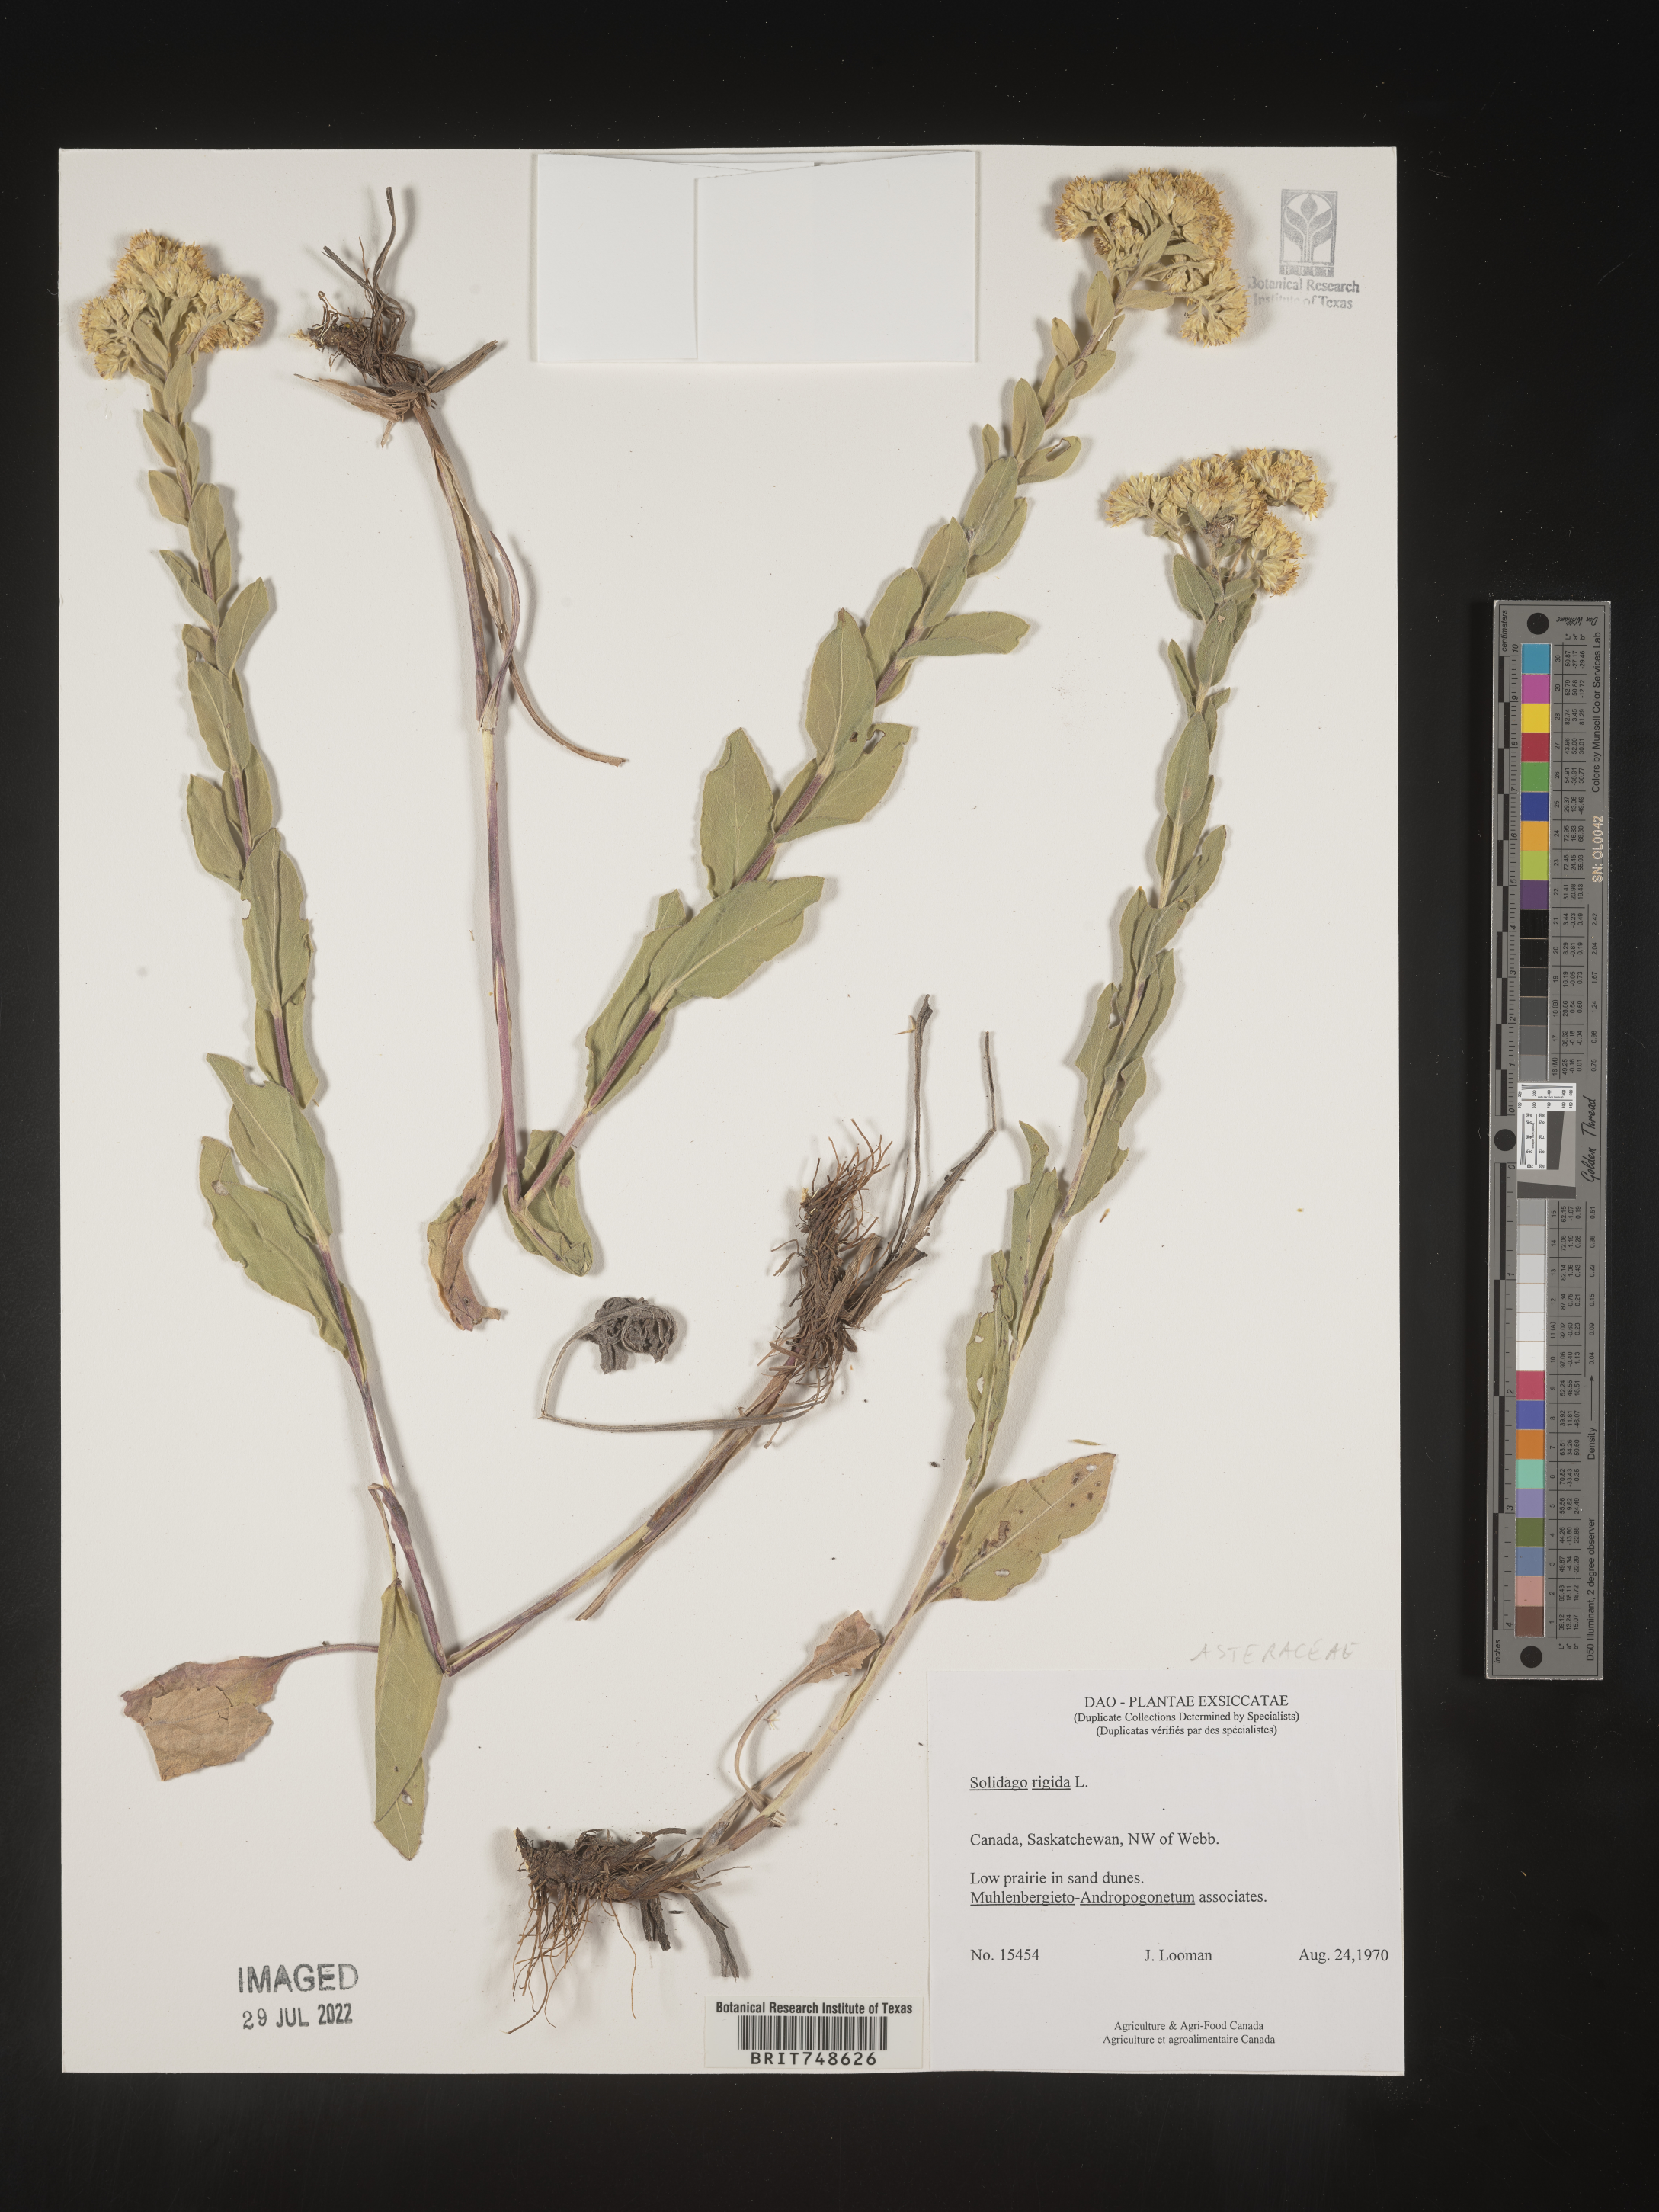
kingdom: Plantae
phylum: Tracheophyta
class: Magnoliopsida
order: Asterales
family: Asteraceae
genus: Solidago
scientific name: Solidago rigida
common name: Rigid goldenrod
